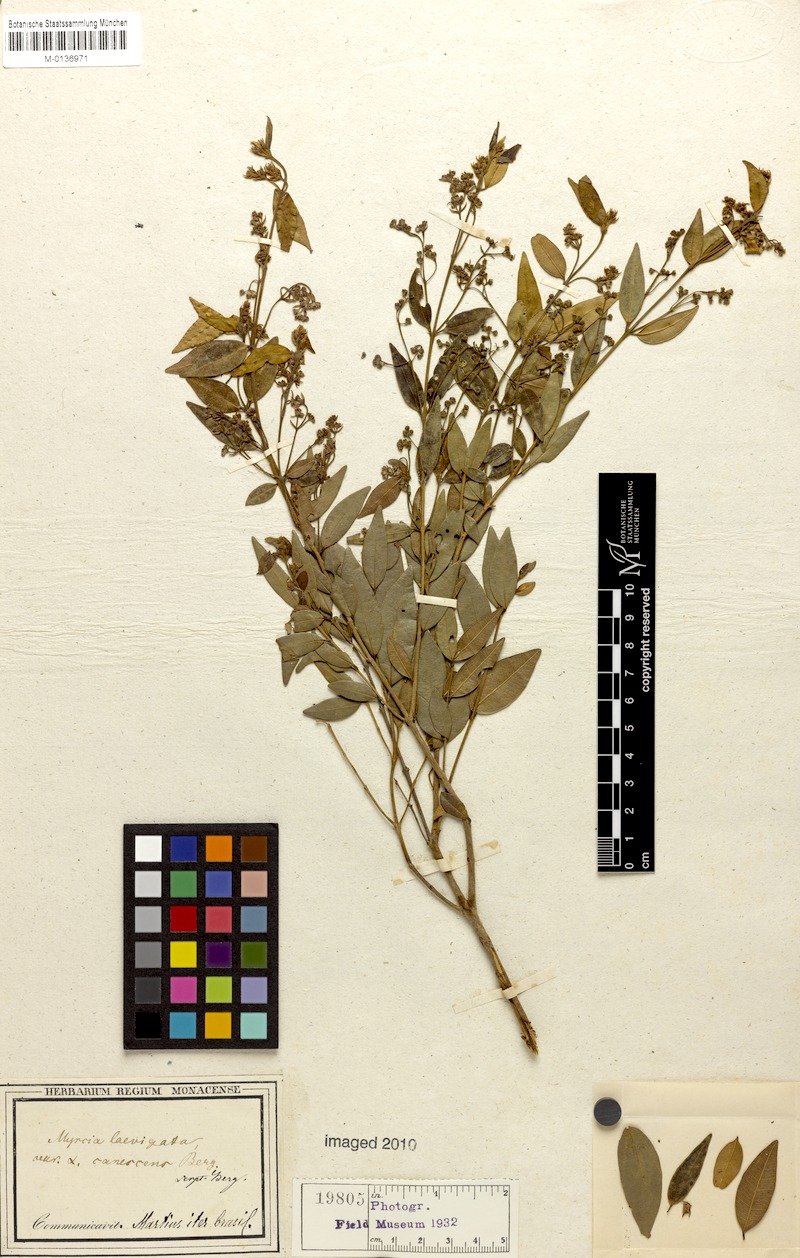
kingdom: Plantae
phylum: Tracheophyta
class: Magnoliopsida
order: Myrtales
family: Myrtaceae
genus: Myrcia
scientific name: Myrcia splendens
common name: Surinam cherry
